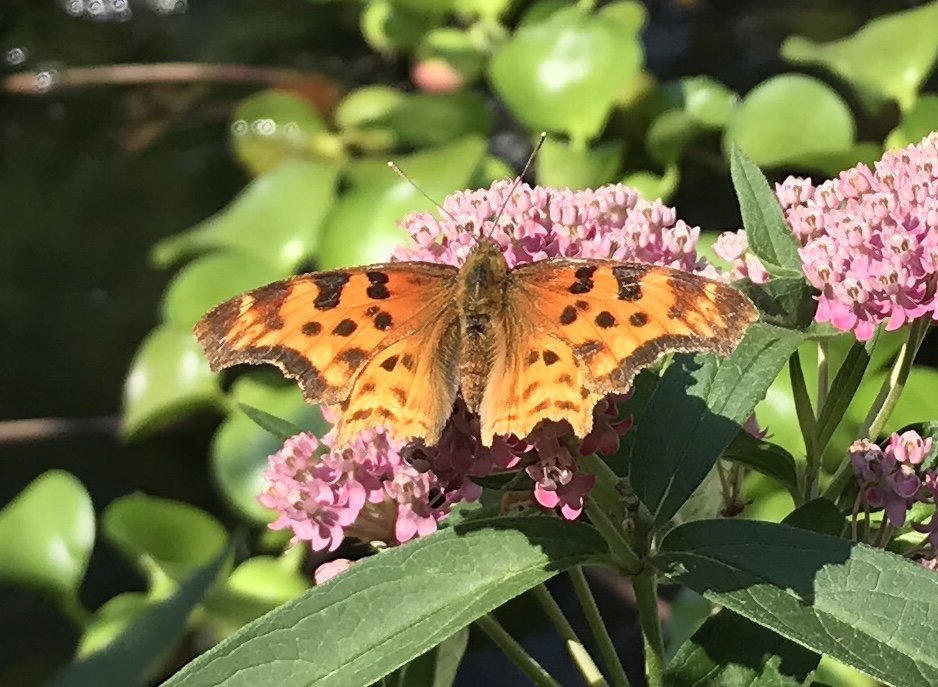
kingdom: Animalia
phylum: Arthropoda
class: Insecta
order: Lepidoptera
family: Nymphalidae
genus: Polygonia
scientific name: Polygonia satyrus
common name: Satyr Comma
